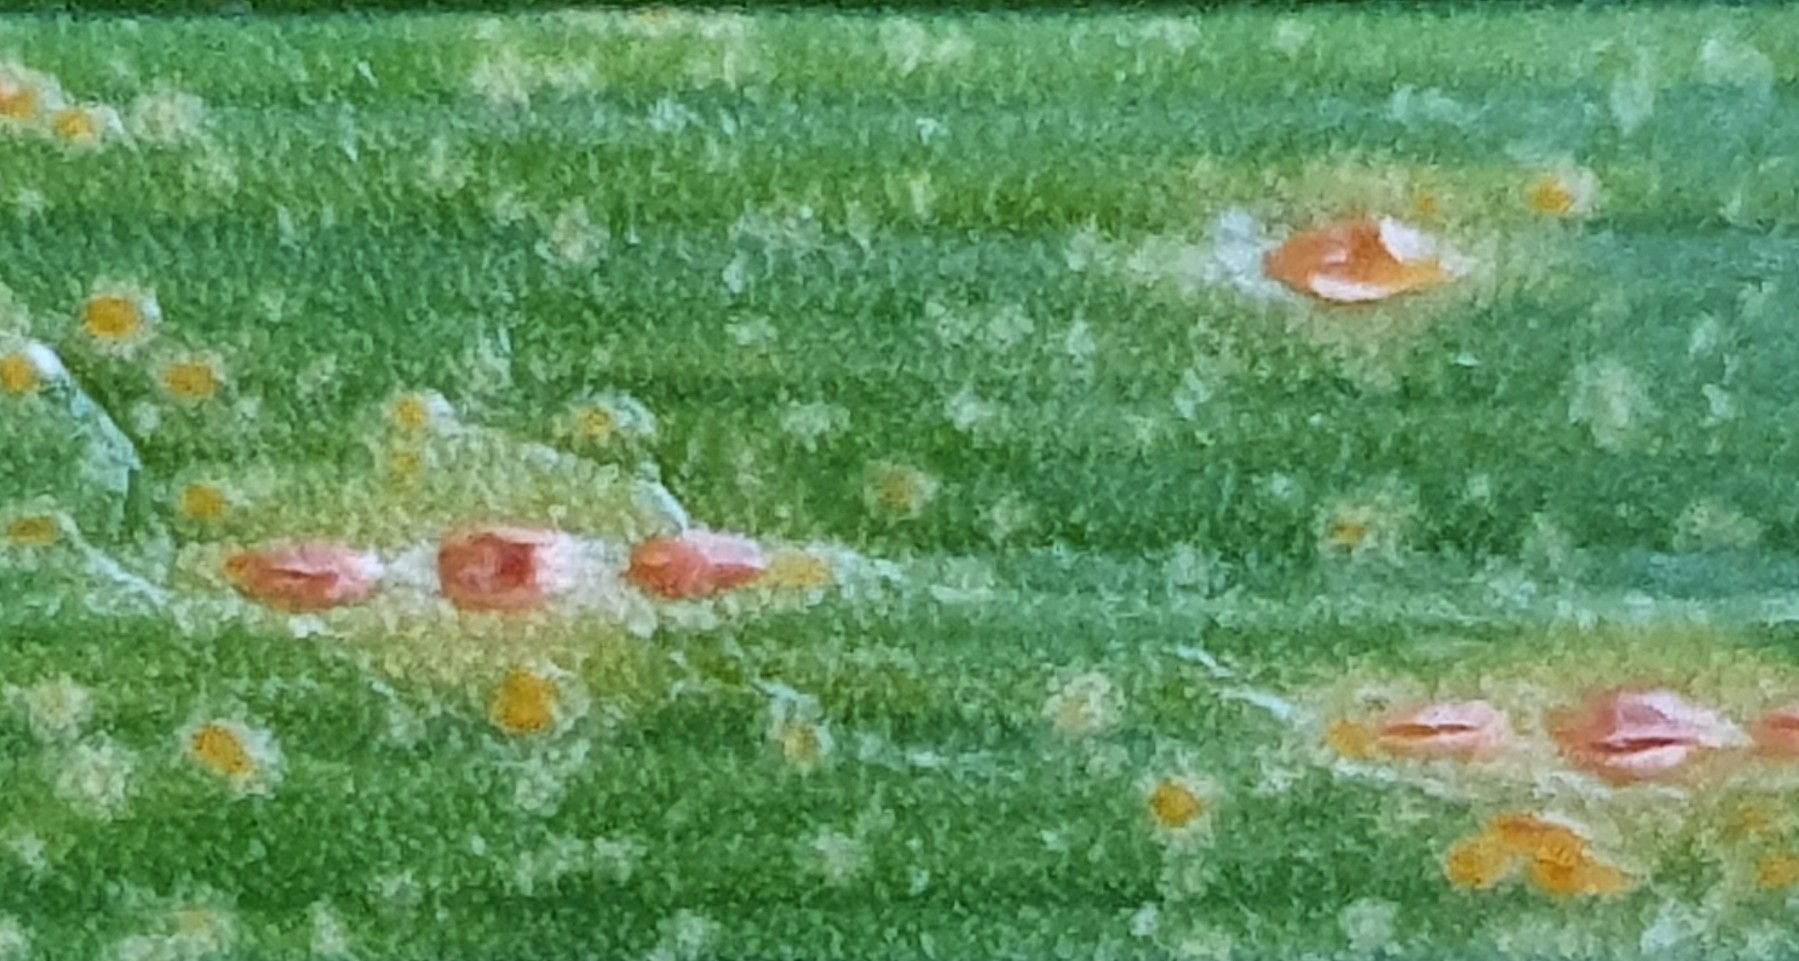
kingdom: Fungi
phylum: Basidiomycota
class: Pucciniomycetes
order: Pucciniales
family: Pucciniaceae
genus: Puccinia
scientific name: Puccinia porri
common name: Allium rust
